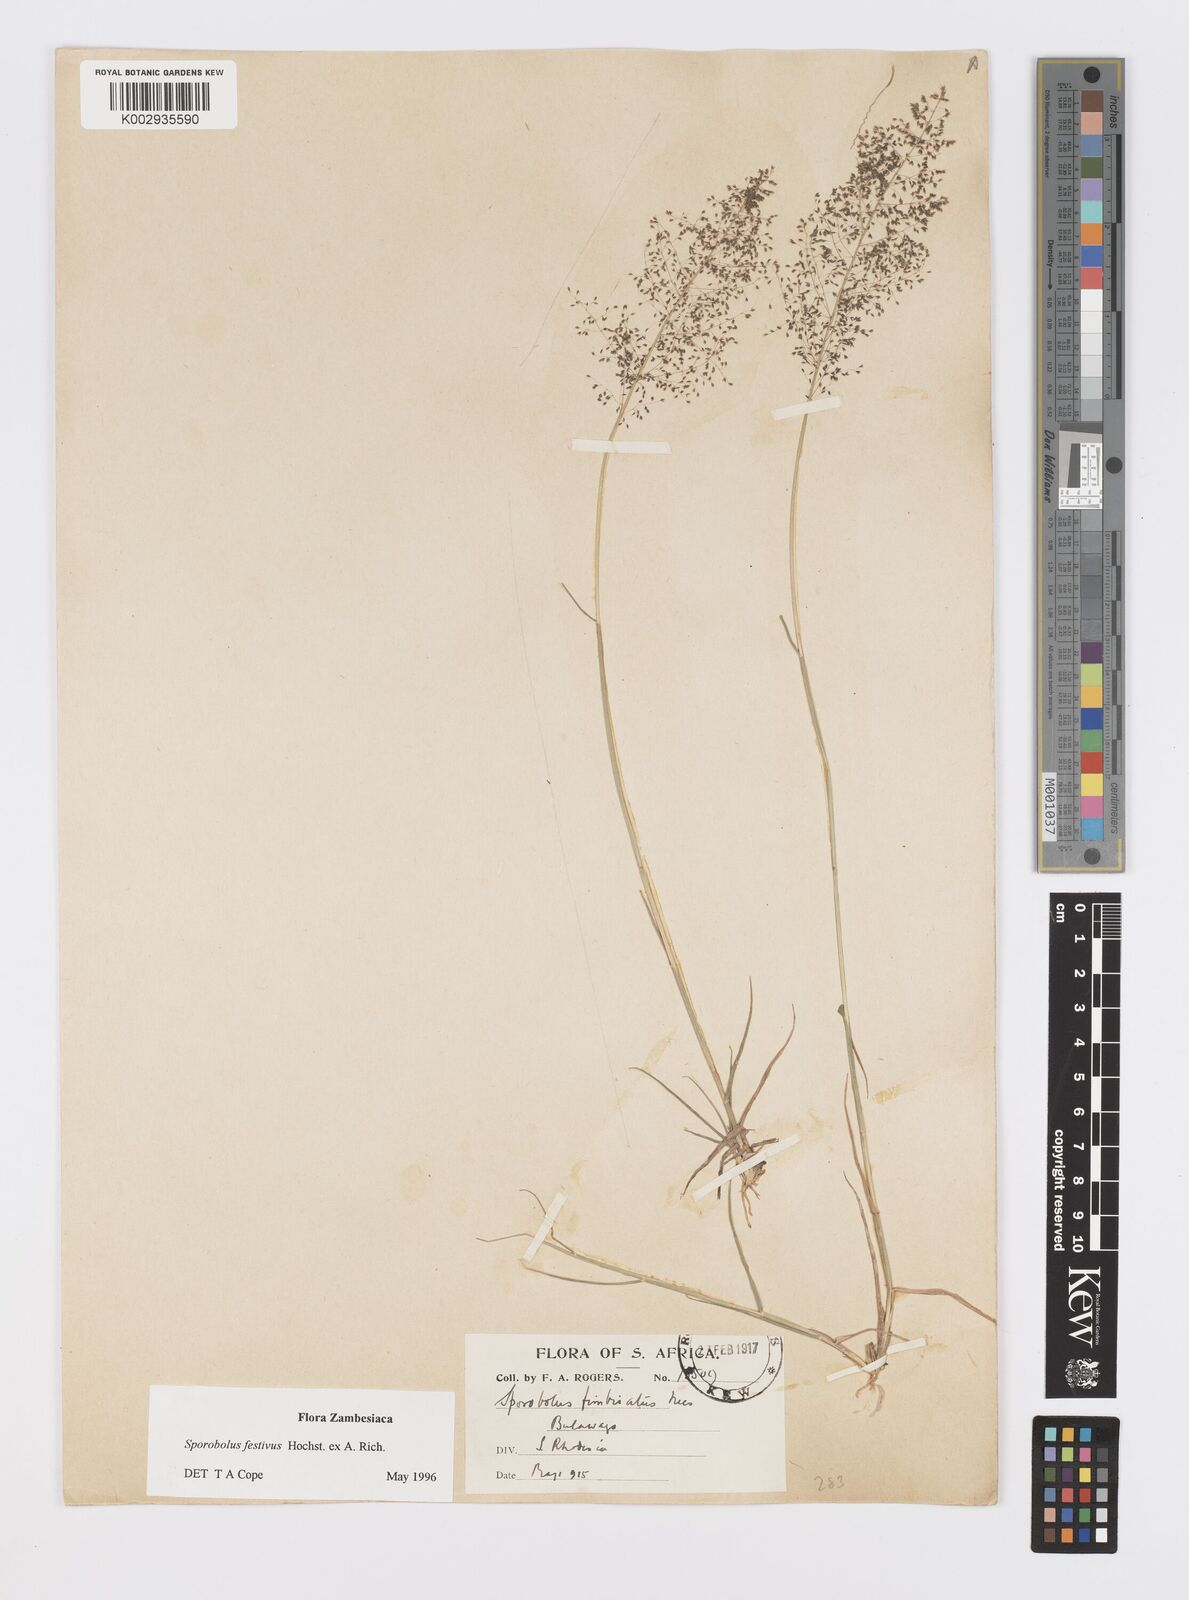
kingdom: Plantae
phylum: Tracheophyta
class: Liliopsida
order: Poales
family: Poaceae
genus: Sporobolus
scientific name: Sporobolus festivus
